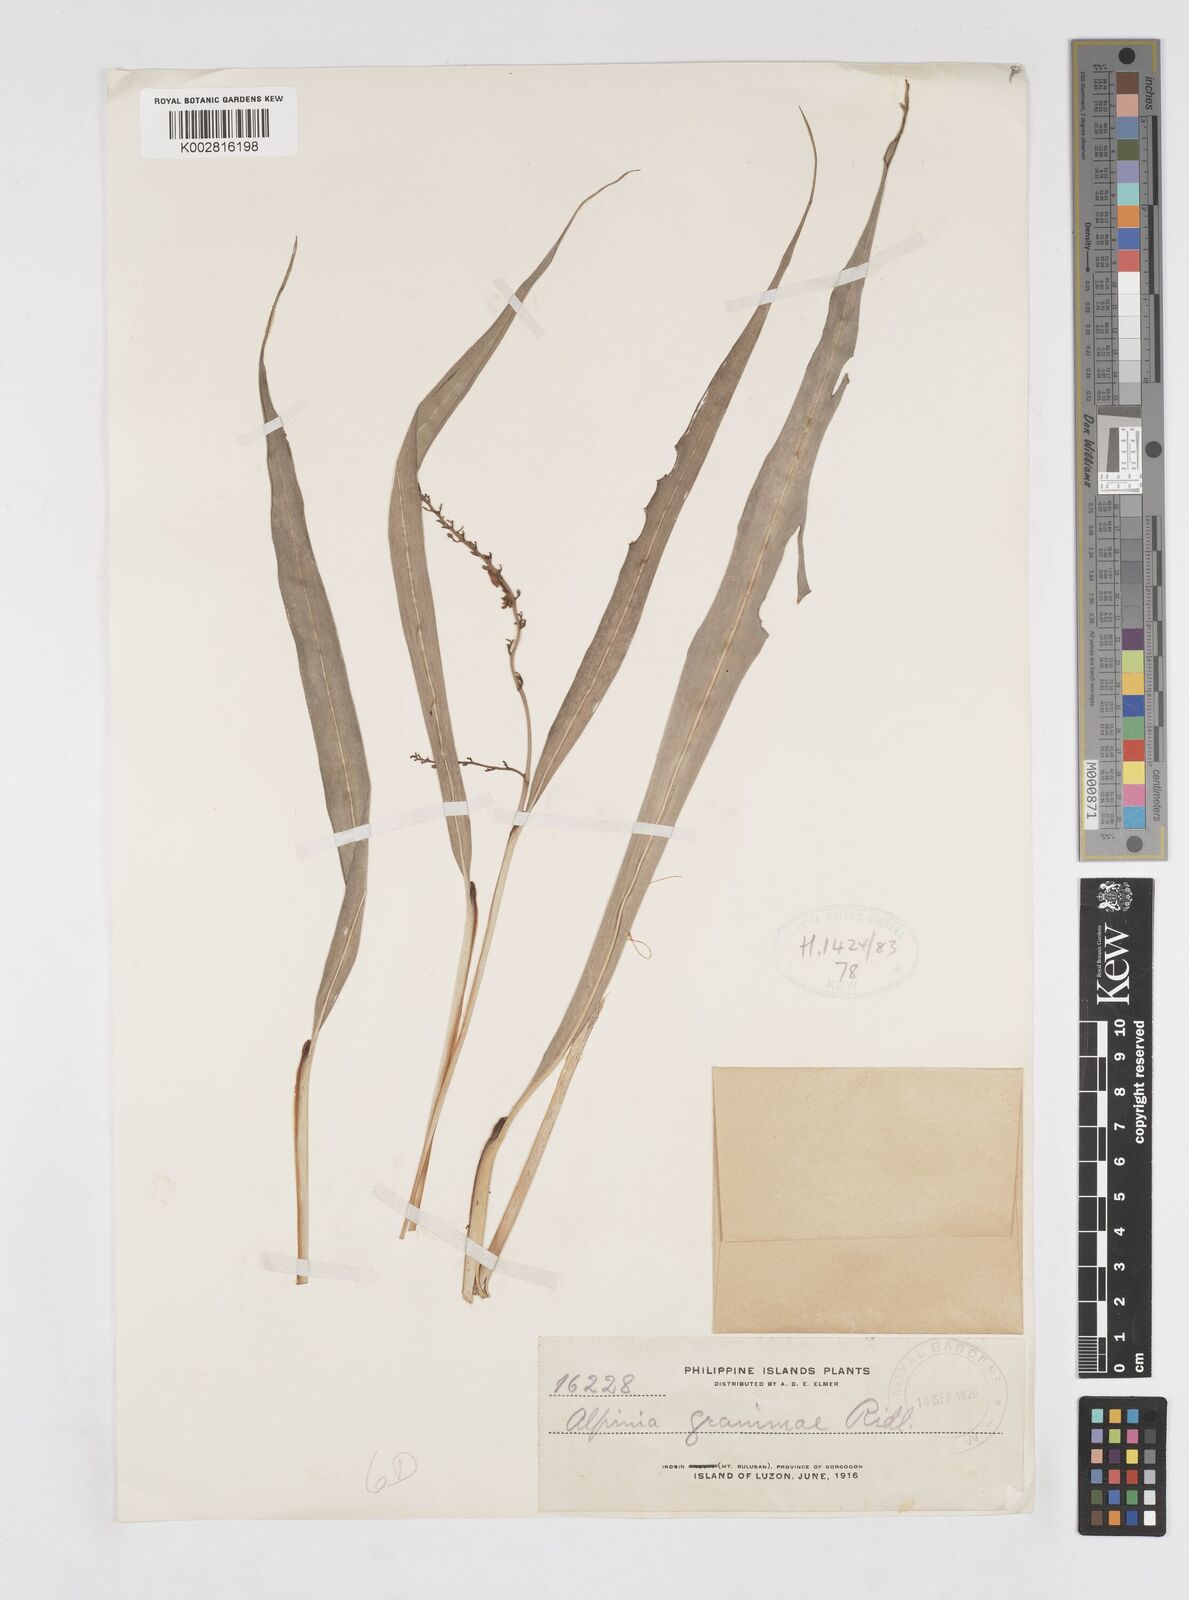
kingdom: Plantae
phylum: Tracheophyta
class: Liliopsida
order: Zingiberales
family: Zingiberaceae
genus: Alpinia
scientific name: Alpinia graminea
